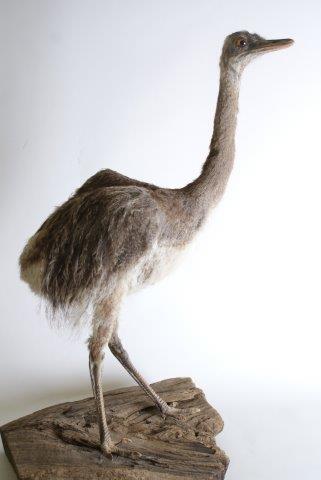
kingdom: Animalia
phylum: Chordata
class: Aves
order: Rheiformes
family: Rheidae
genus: Rhea
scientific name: Rhea americana
